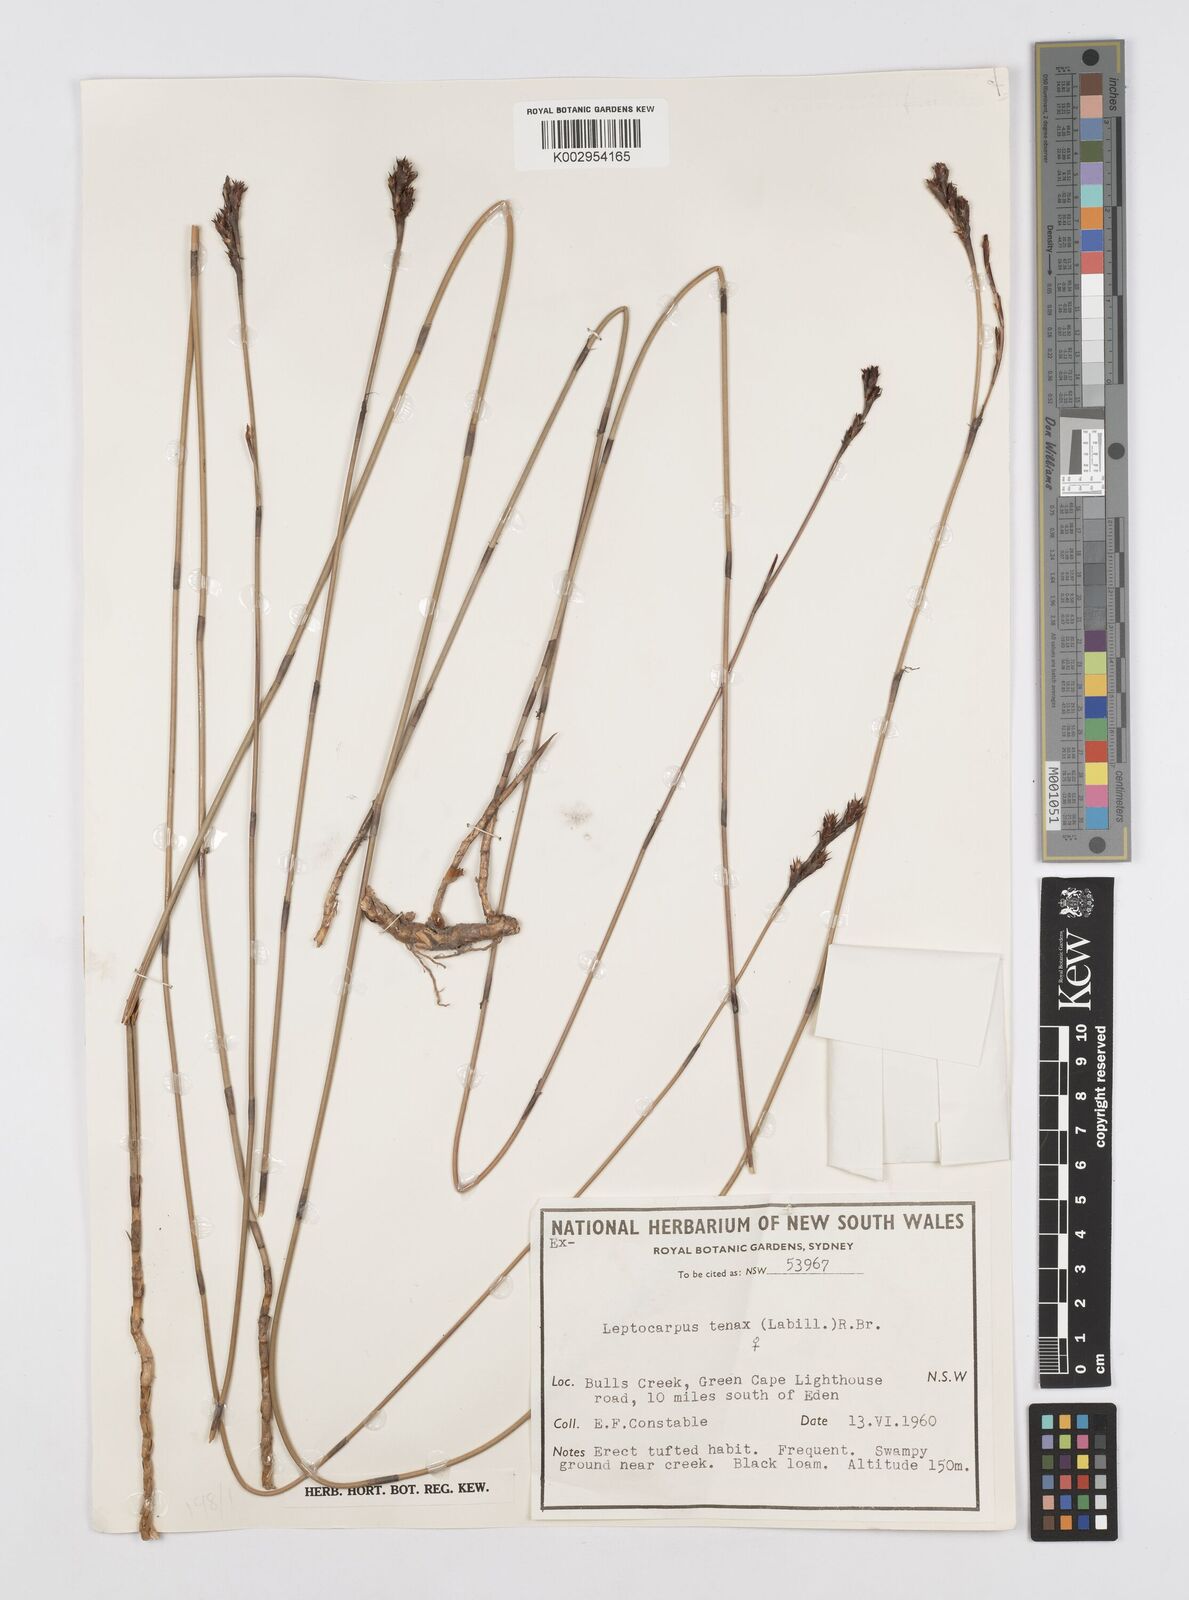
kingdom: Plantae
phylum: Tracheophyta
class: Liliopsida
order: Poales
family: Restionaceae
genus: Leptocarpus
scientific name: Leptocarpus tenax
